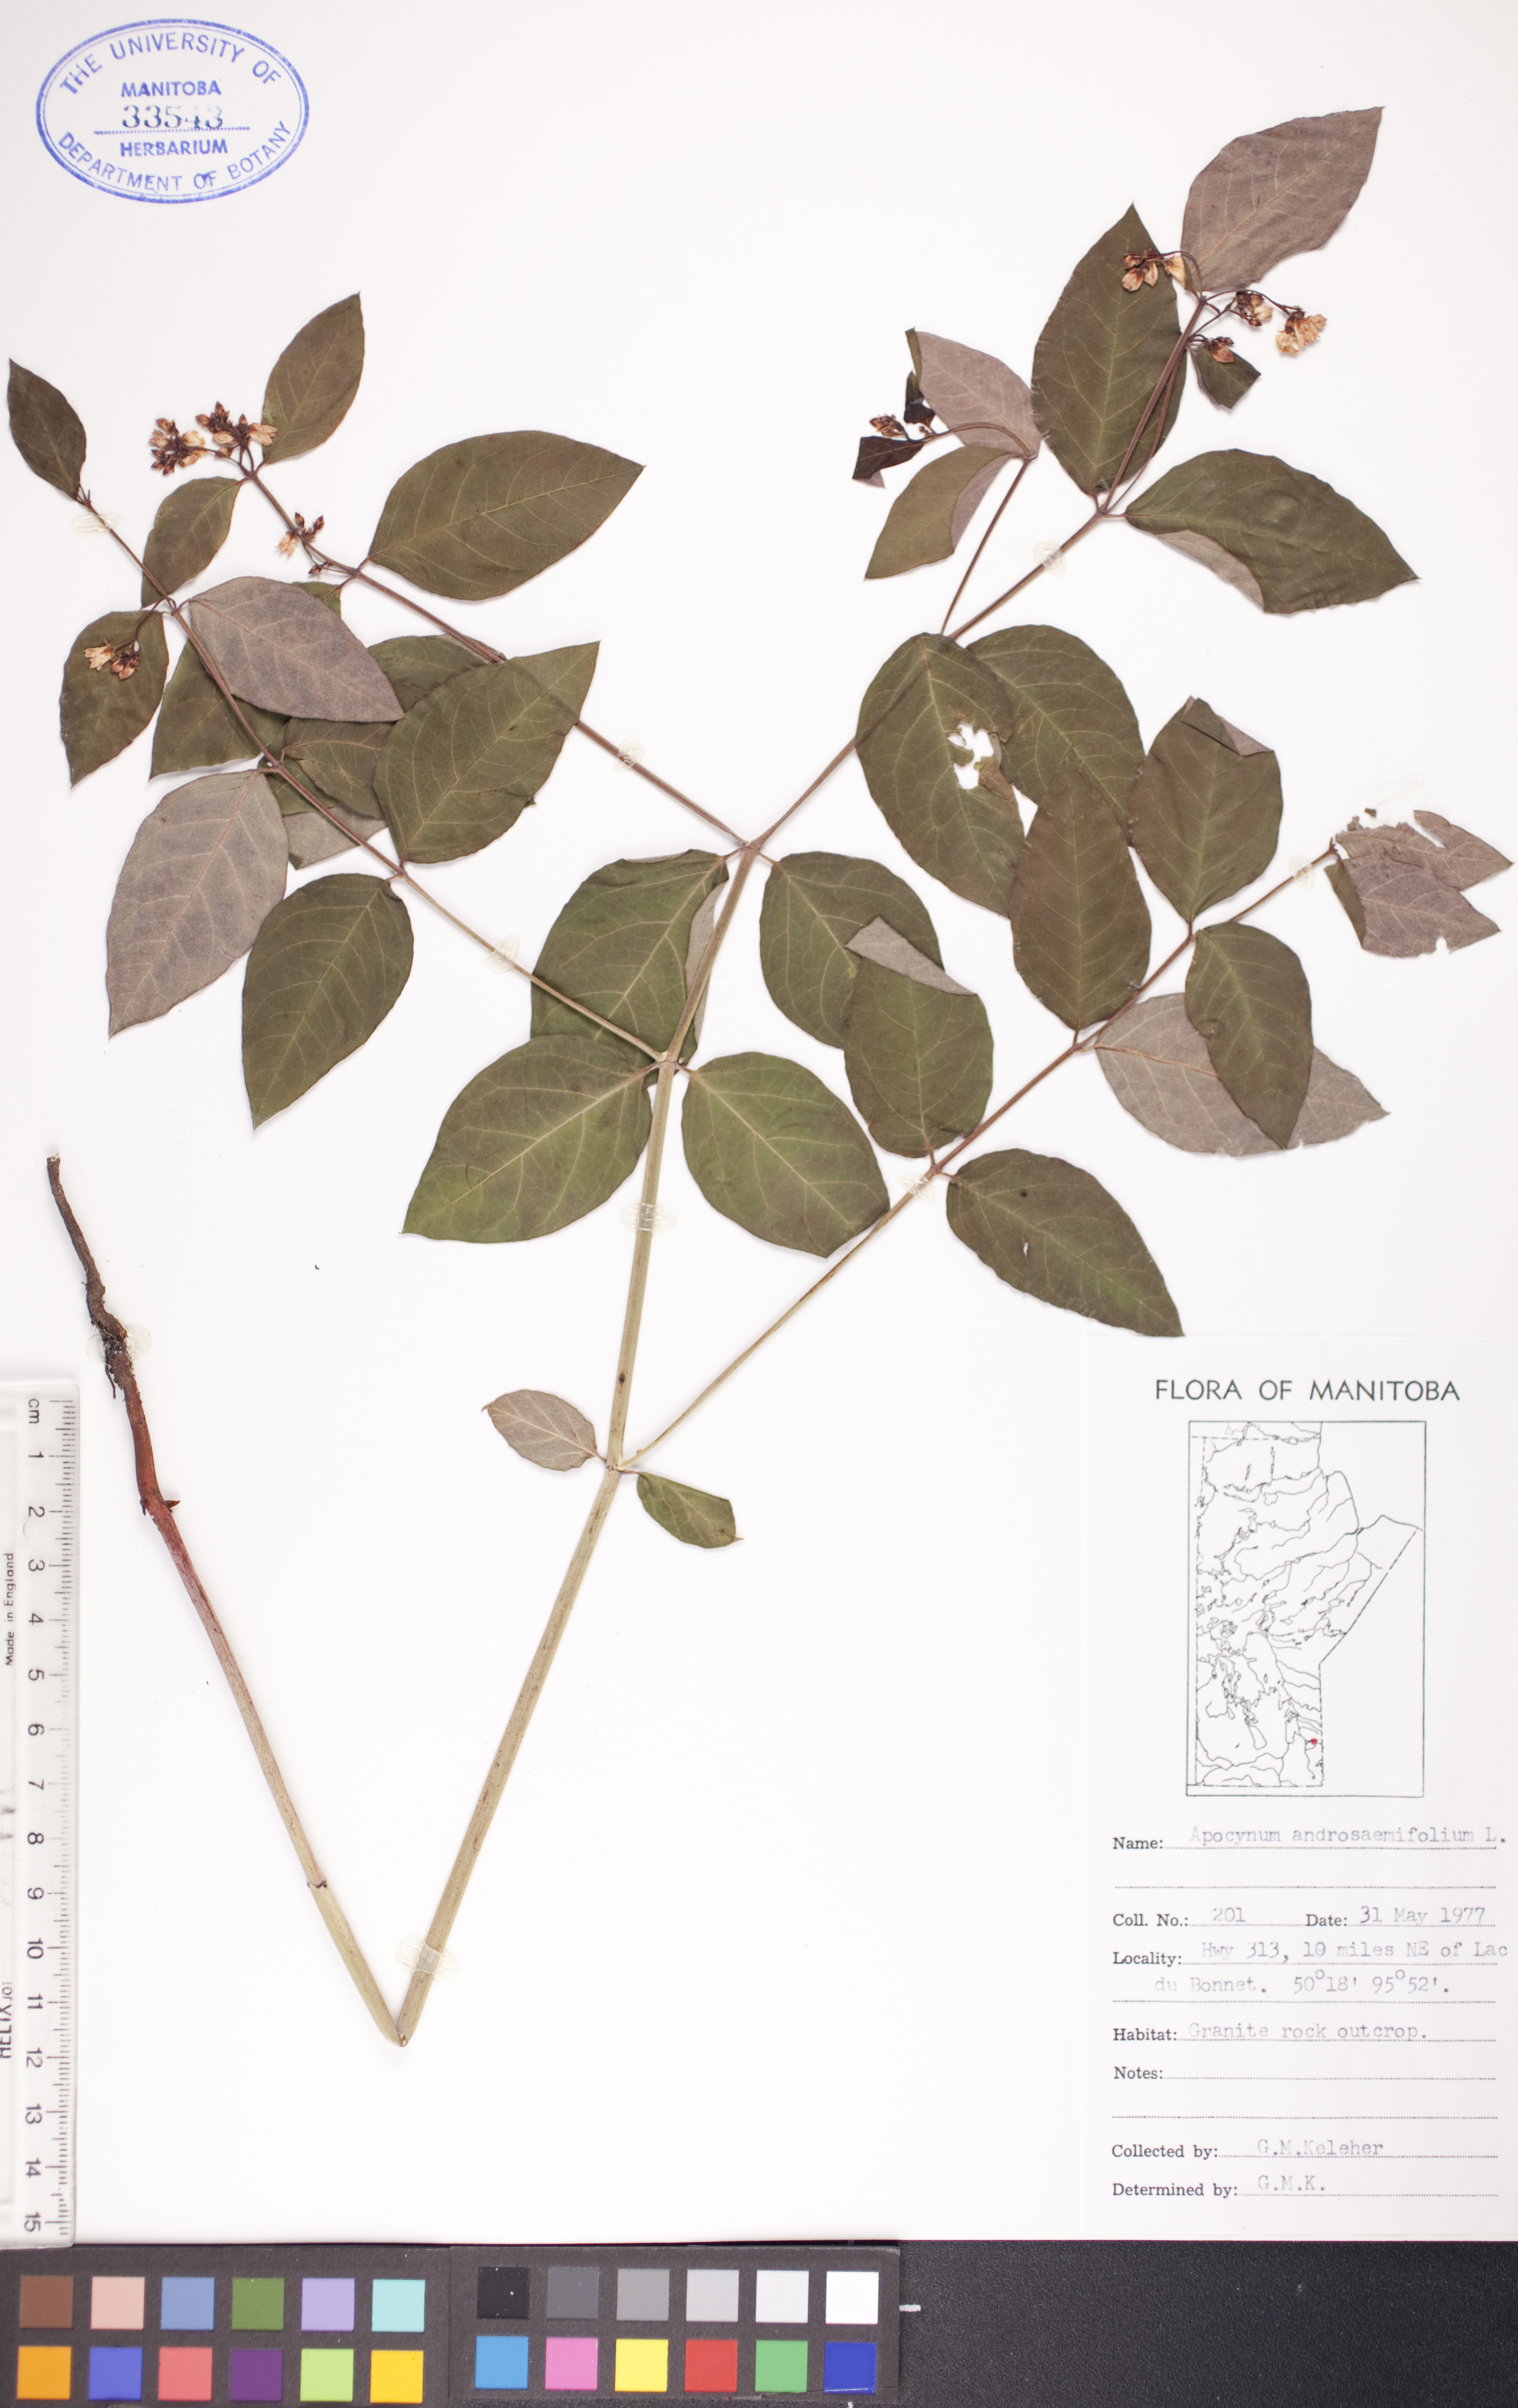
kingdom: Plantae
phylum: Tracheophyta
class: Magnoliopsida
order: Gentianales
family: Apocynaceae
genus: Apocynum
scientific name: Apocynum androsaemifolium
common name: Spreading dogbane
